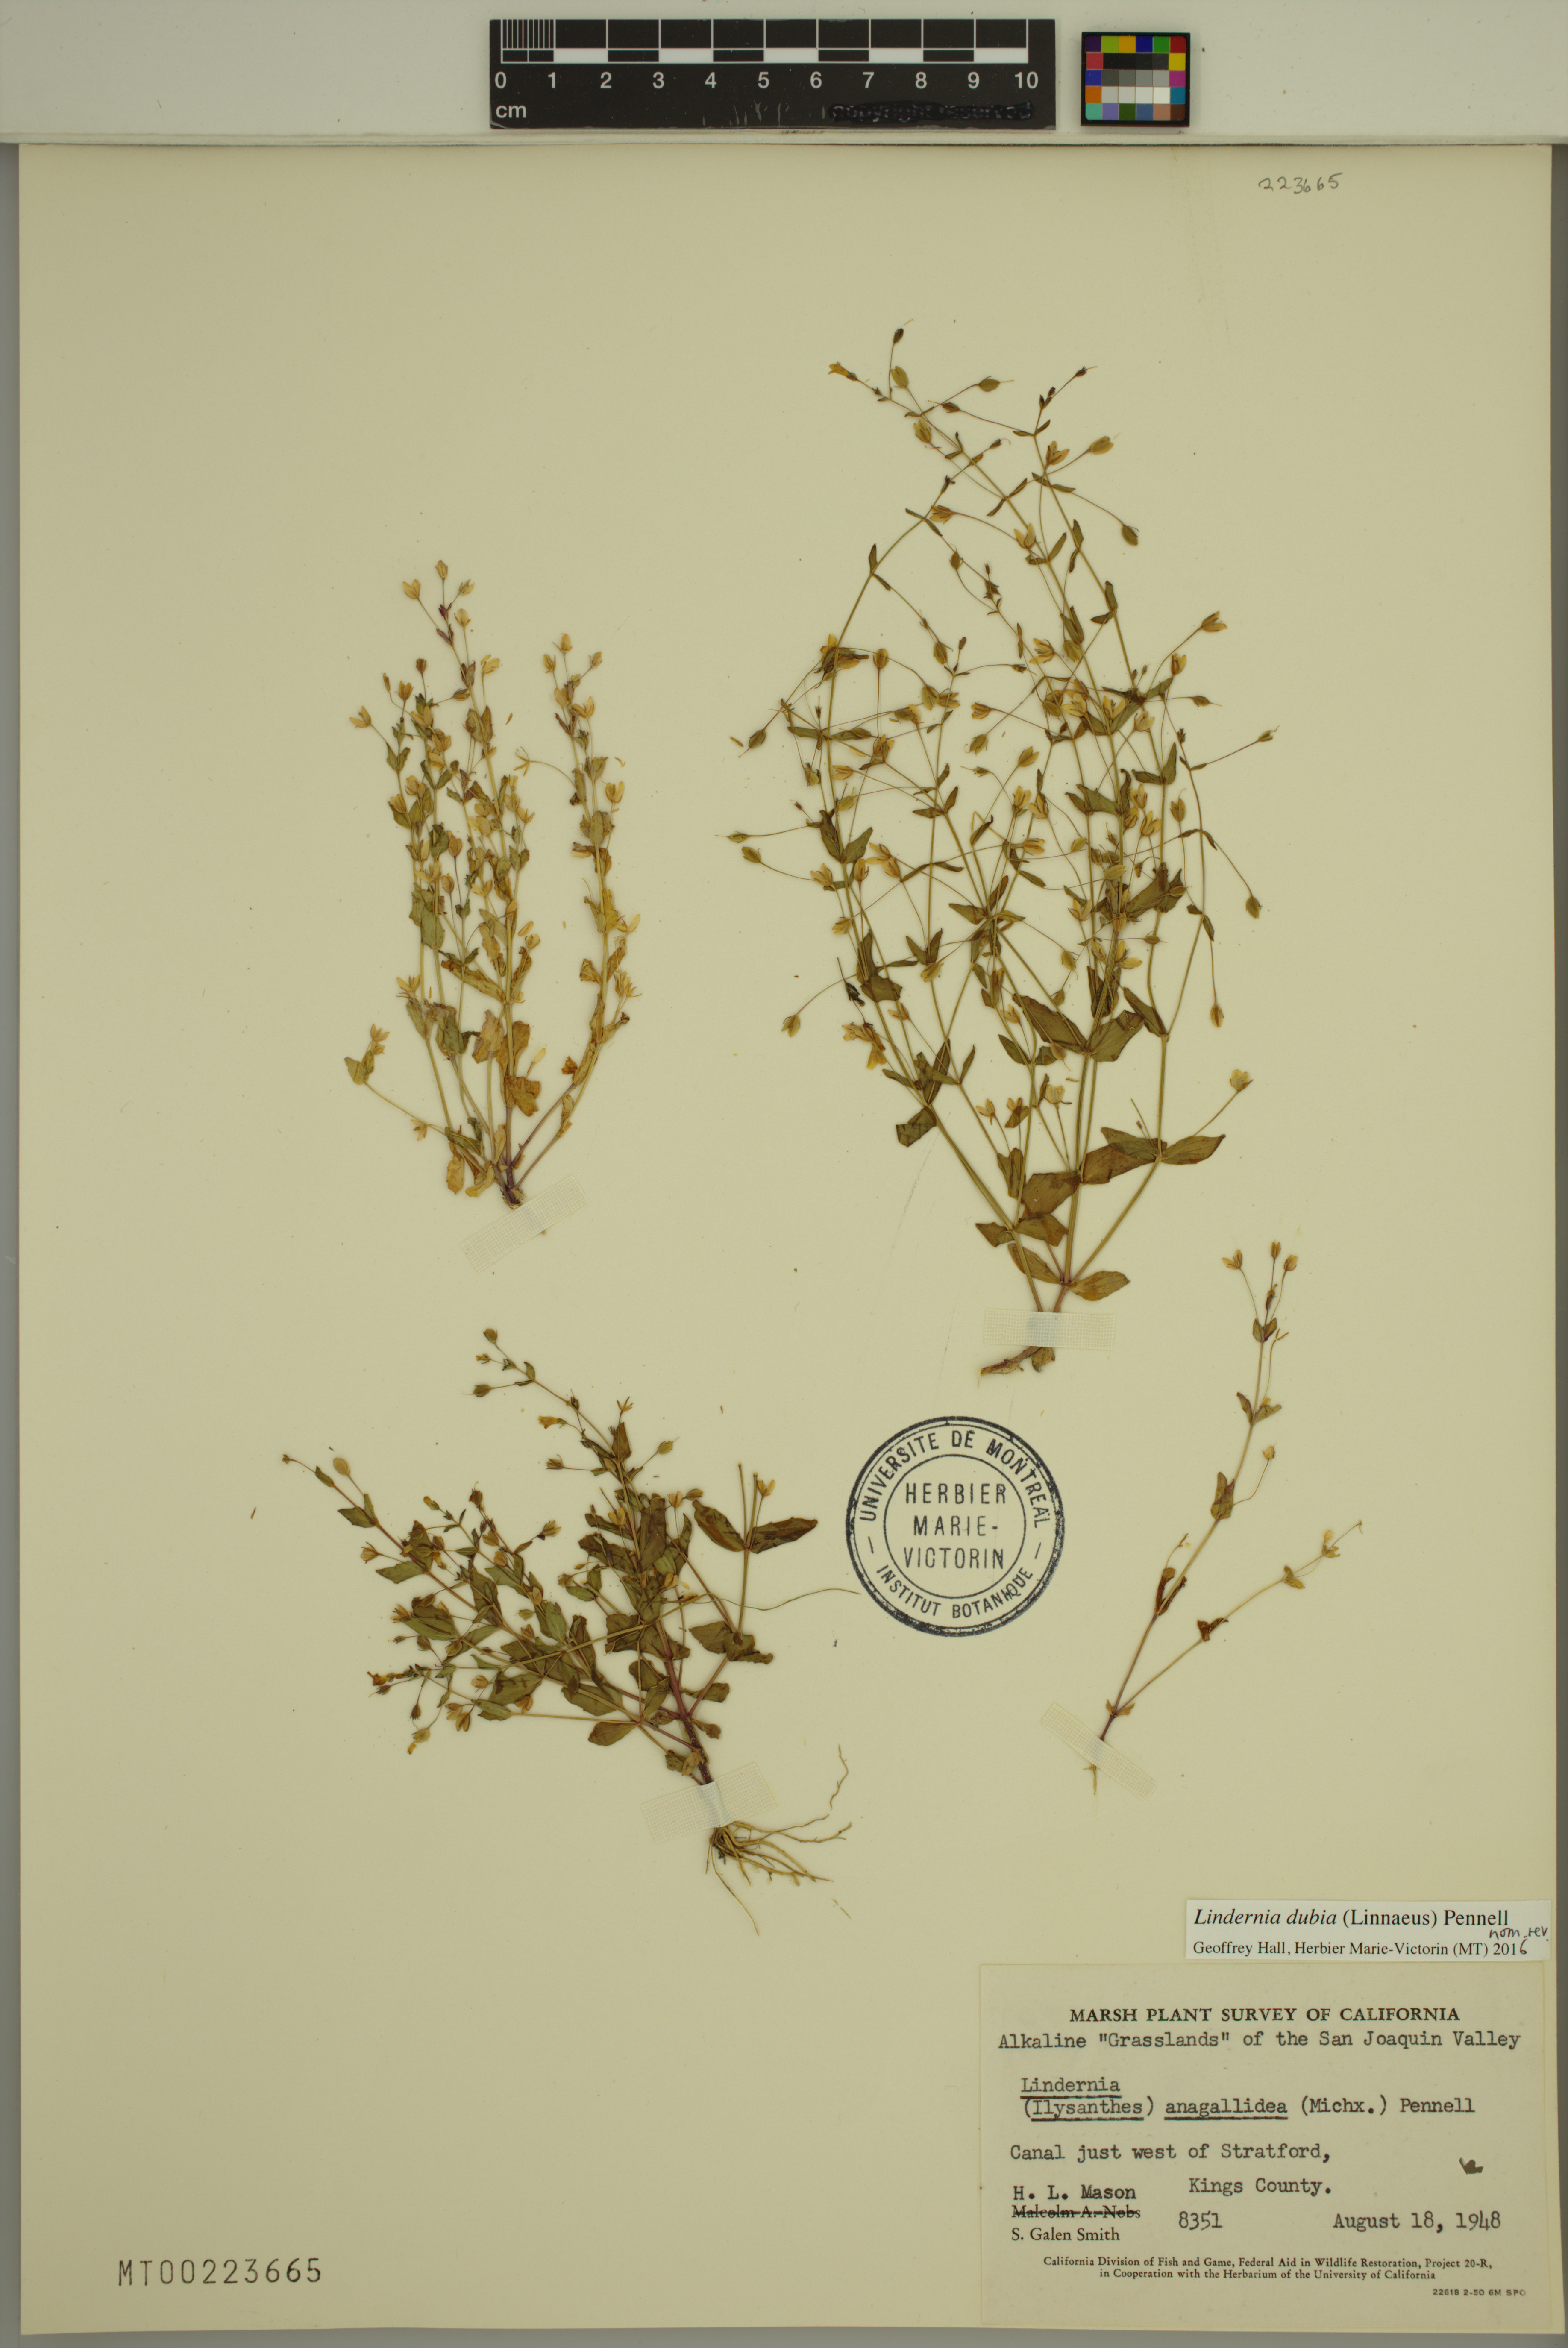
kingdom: Plantae
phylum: Tracheophyta
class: Magnoliopsida
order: Lamiales
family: Linderniaceae
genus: Lindernia
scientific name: Lindernia dubia
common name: Annual false pimpernel
